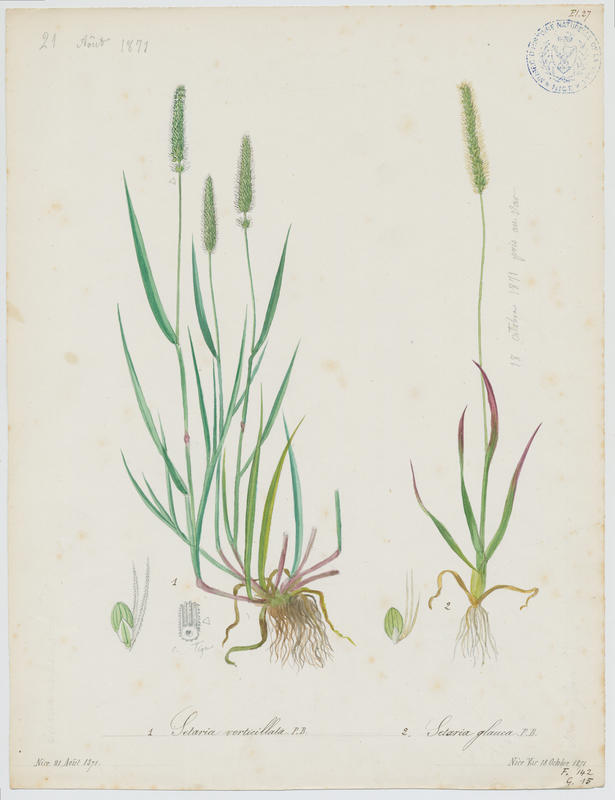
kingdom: Plantae
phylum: Tracheophyta
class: Liliopsida
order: Poales
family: Poaceae
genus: Setaria
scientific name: Setaria pumila
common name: Yellow bristle-grass
